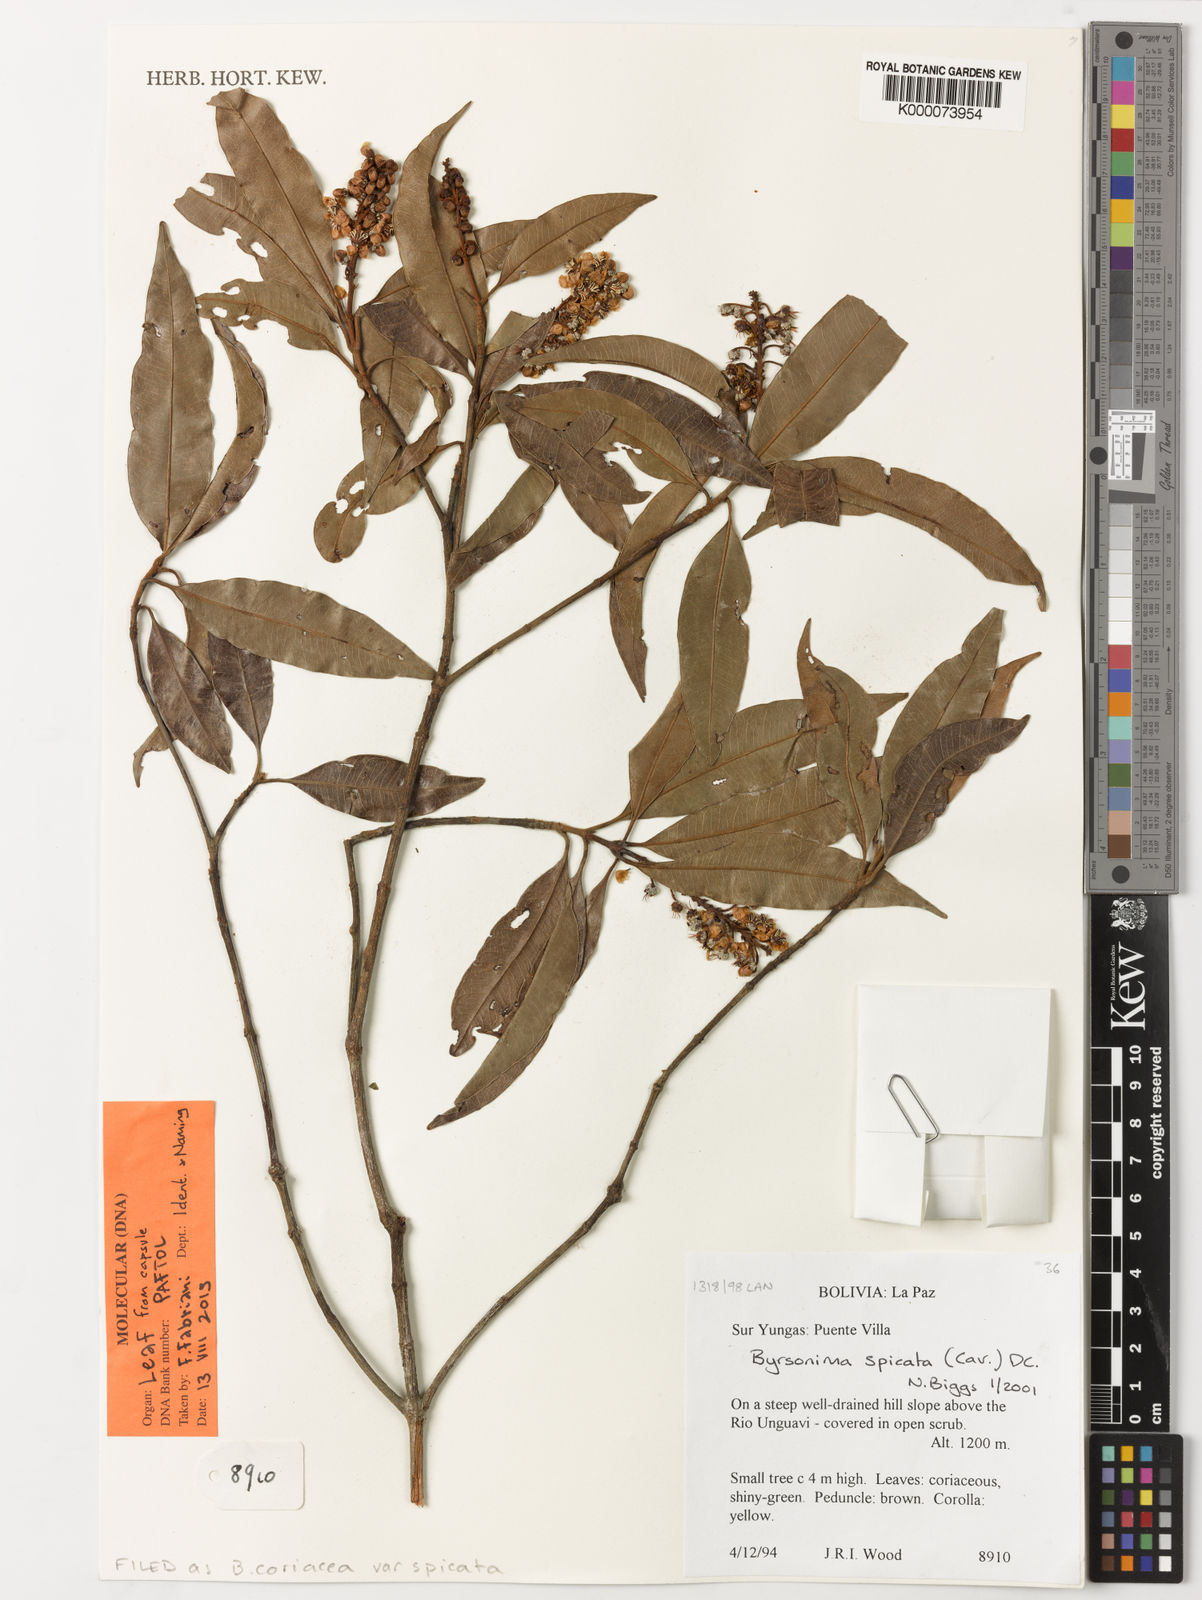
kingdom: Plantae
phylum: Tracheophyta
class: Magnoliopsida
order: Malpighiales
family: Malpighiaceae
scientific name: Malpighiaceae
